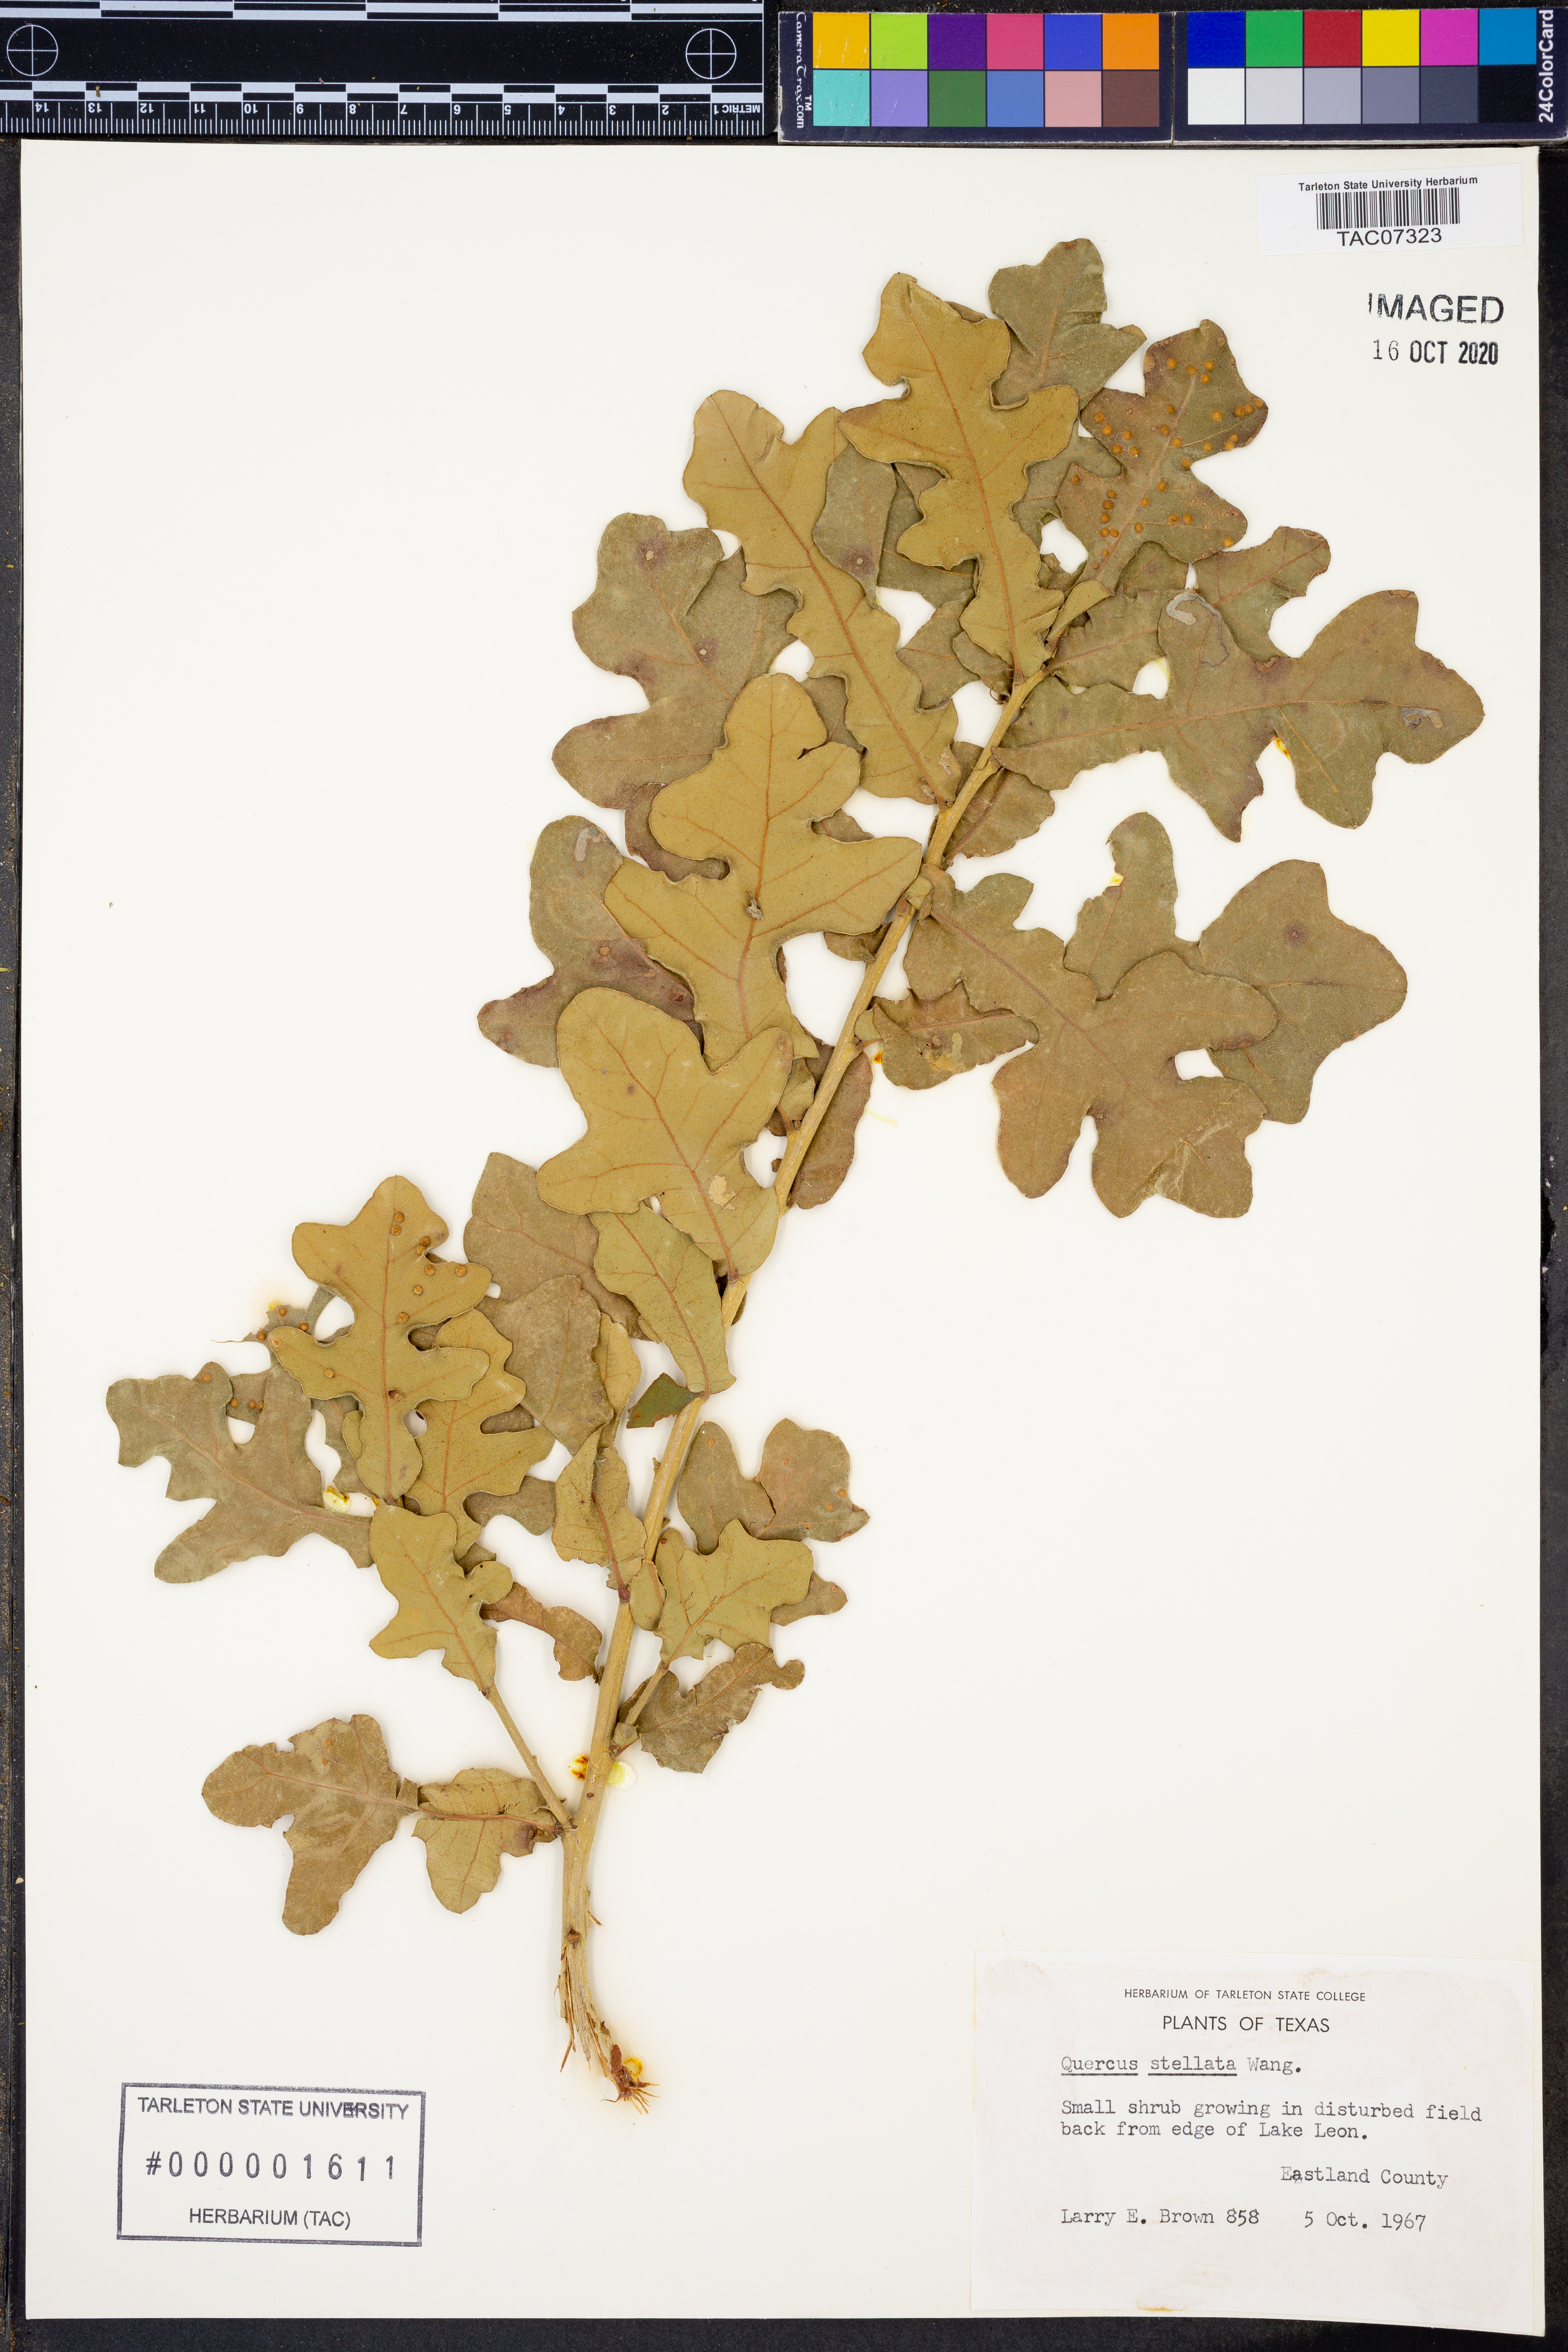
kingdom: Plantae
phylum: Tracheophyta
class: Magnoliopsida
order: Fagales
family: Fagaceae
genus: Quercus
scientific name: Quercus stellata
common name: Post oak
